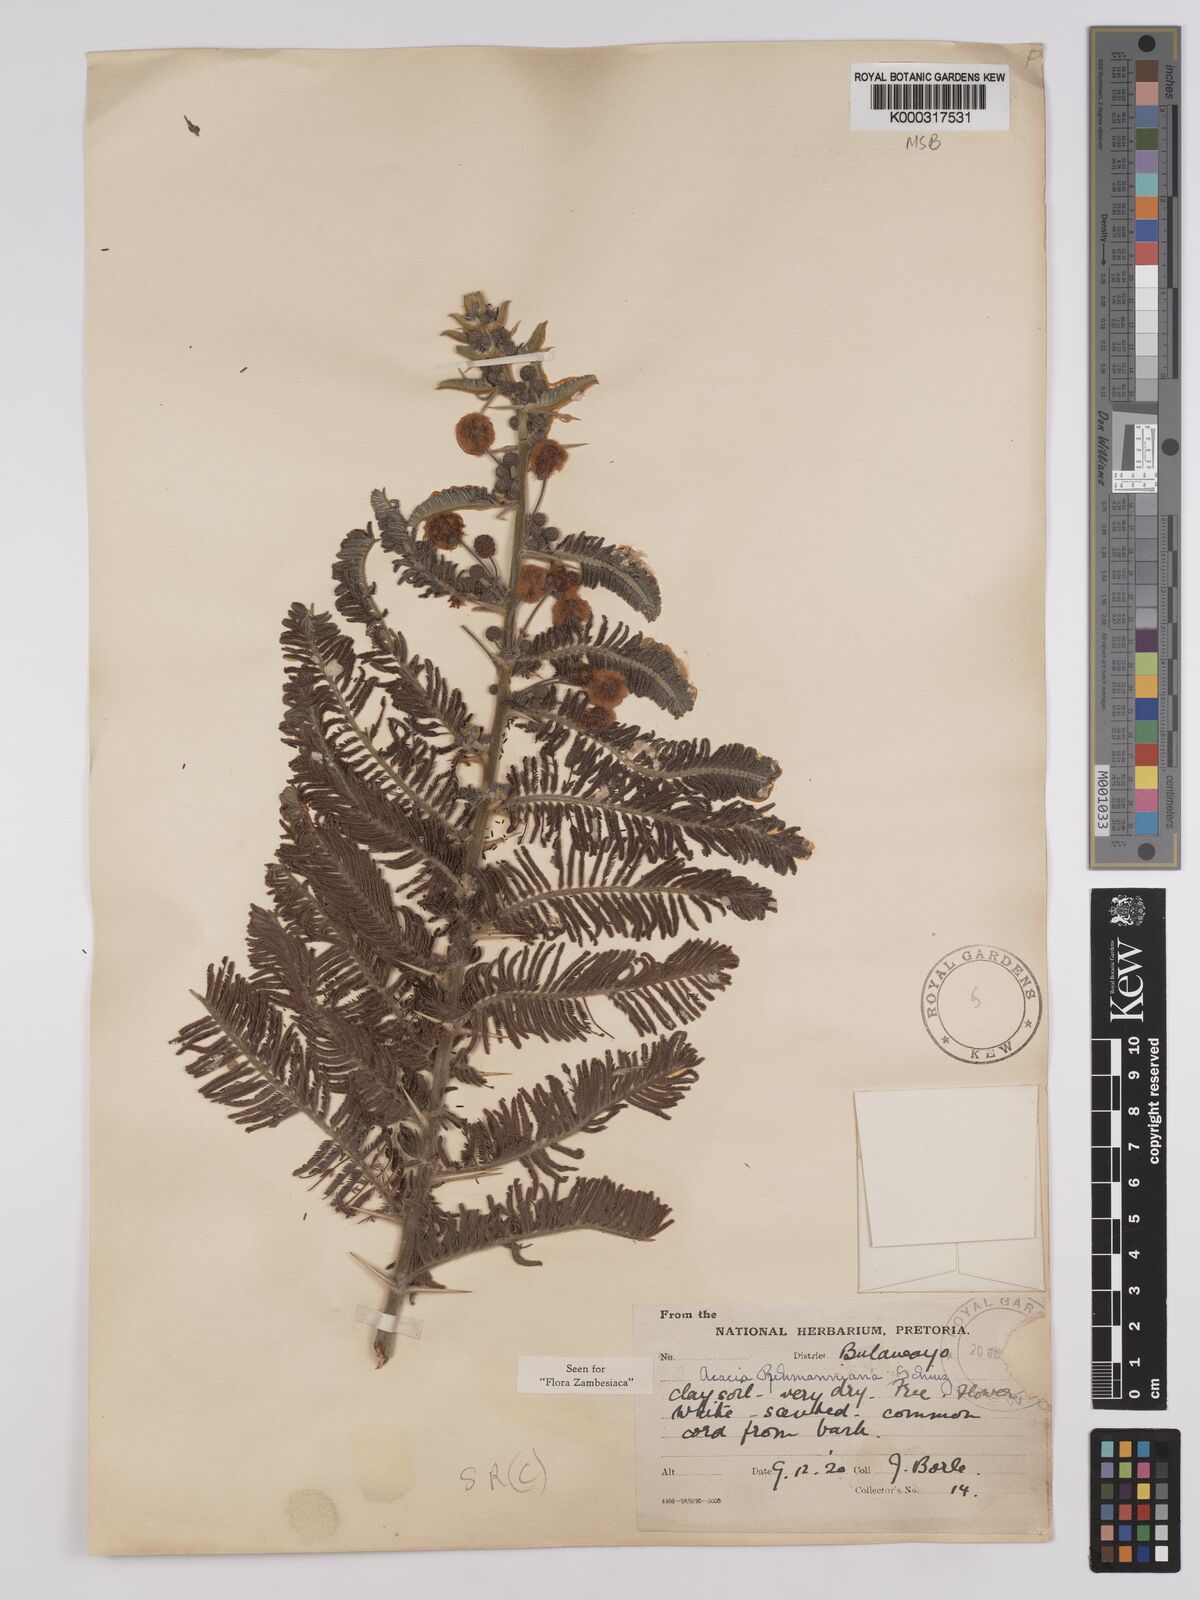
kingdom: Plantae
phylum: Tracheophyta
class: Magnoliopsida
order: Fabales
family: Fabaceae
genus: Vachellia
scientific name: Vachellia rehmanniana
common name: Silky thorn
